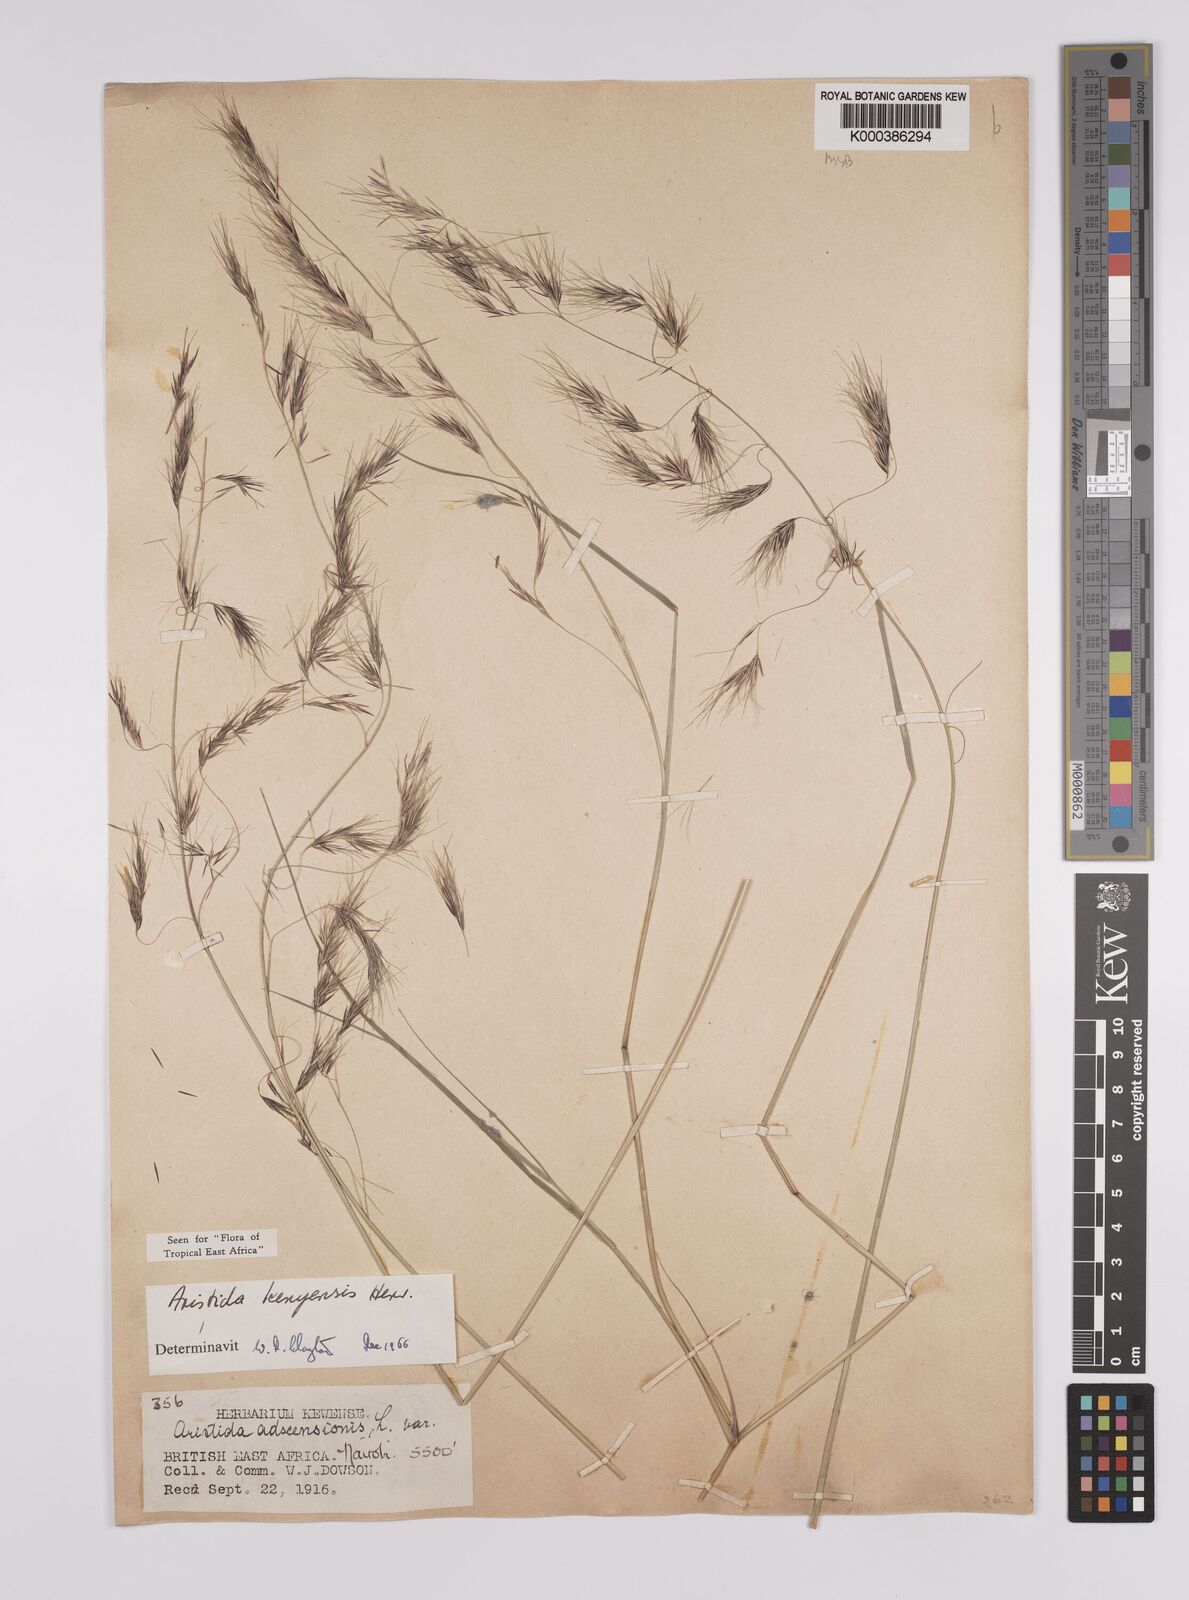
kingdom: Plantae
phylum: Tracheophyta
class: Liliopsida
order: Poales
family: Poaceae
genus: Aristida
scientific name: Aristida kenyensis
